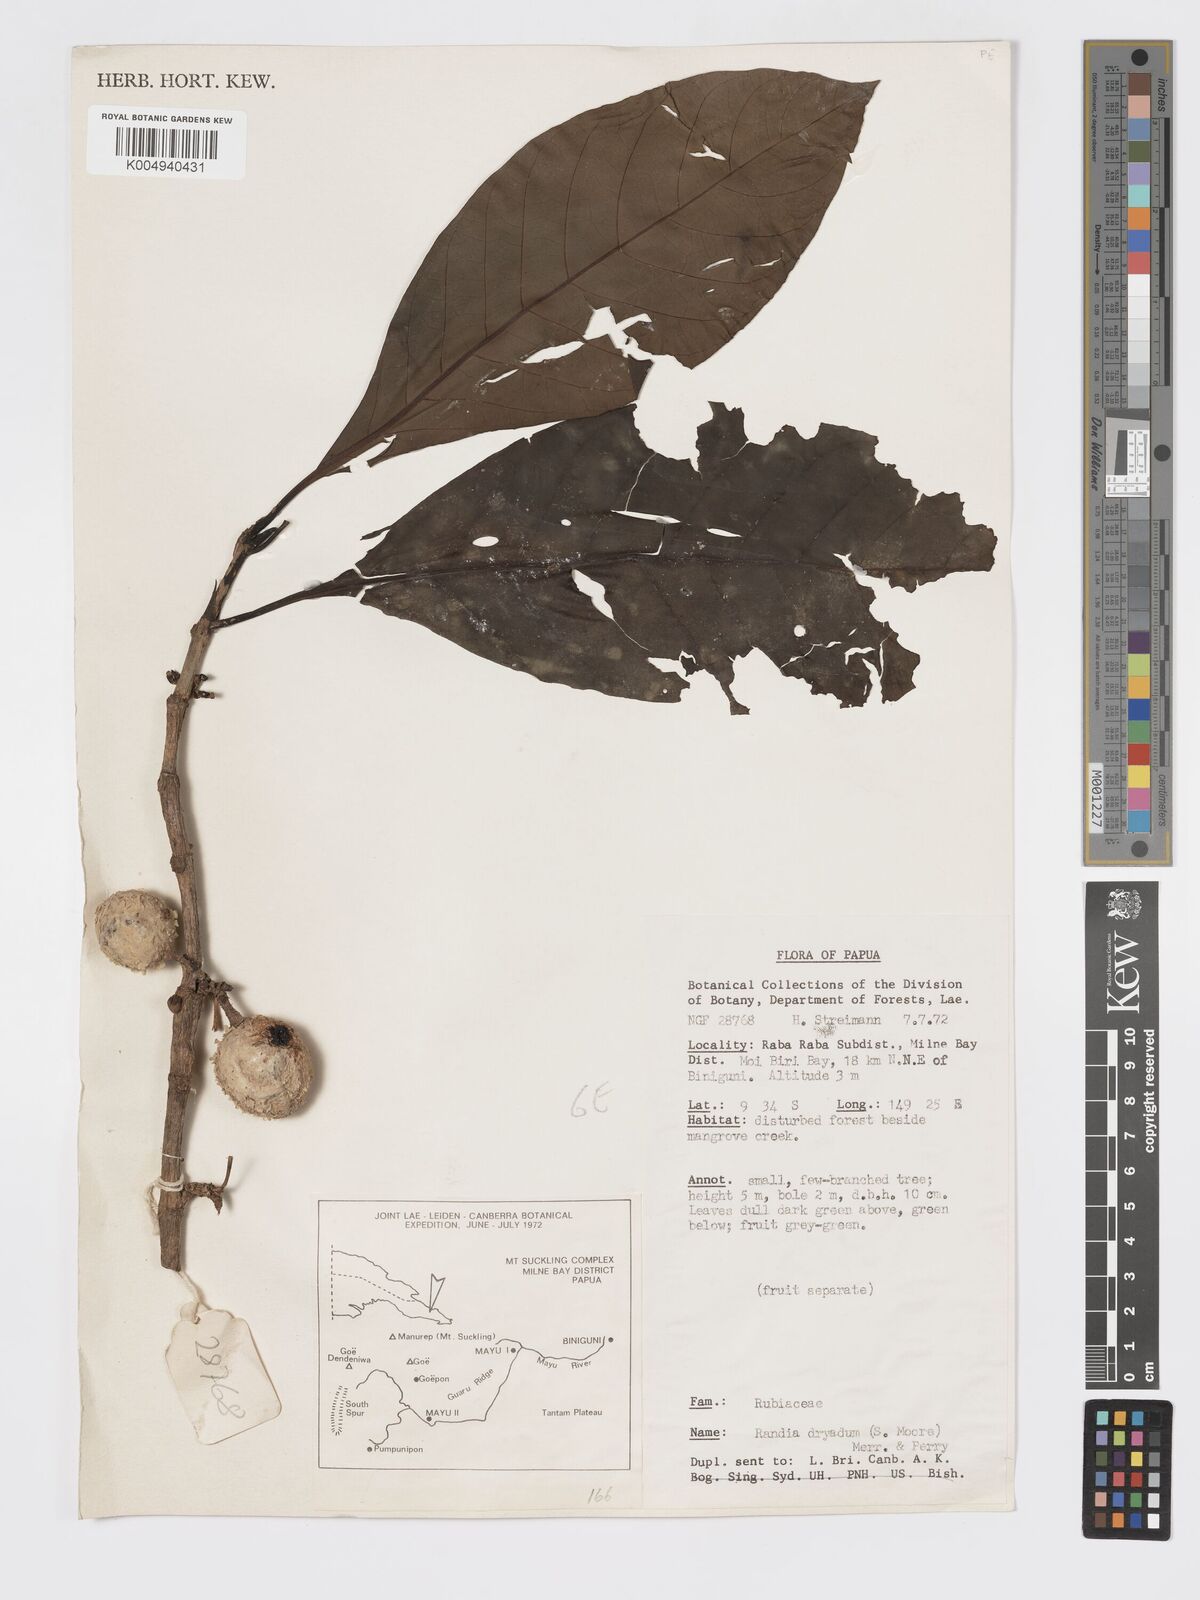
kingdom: Plantae
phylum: Tracheophyta
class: Magnoliopsida
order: Gentianales
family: Rubiaceae
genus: Atractocarpus
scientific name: Atractocarpus macarthurii
